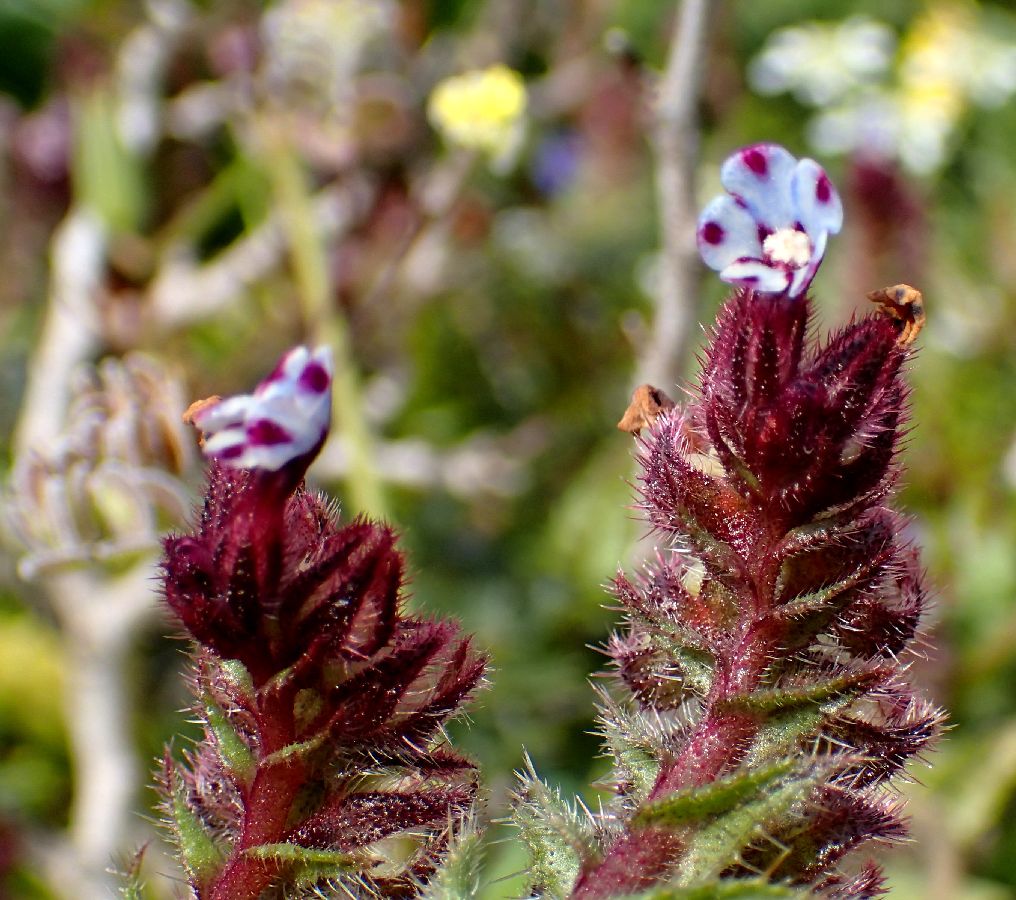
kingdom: Plantae
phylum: Tracheophyta
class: Magnoliopsida
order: Boraginales
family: Boraginaceae
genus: Anchusella
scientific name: Anchusella variegata
